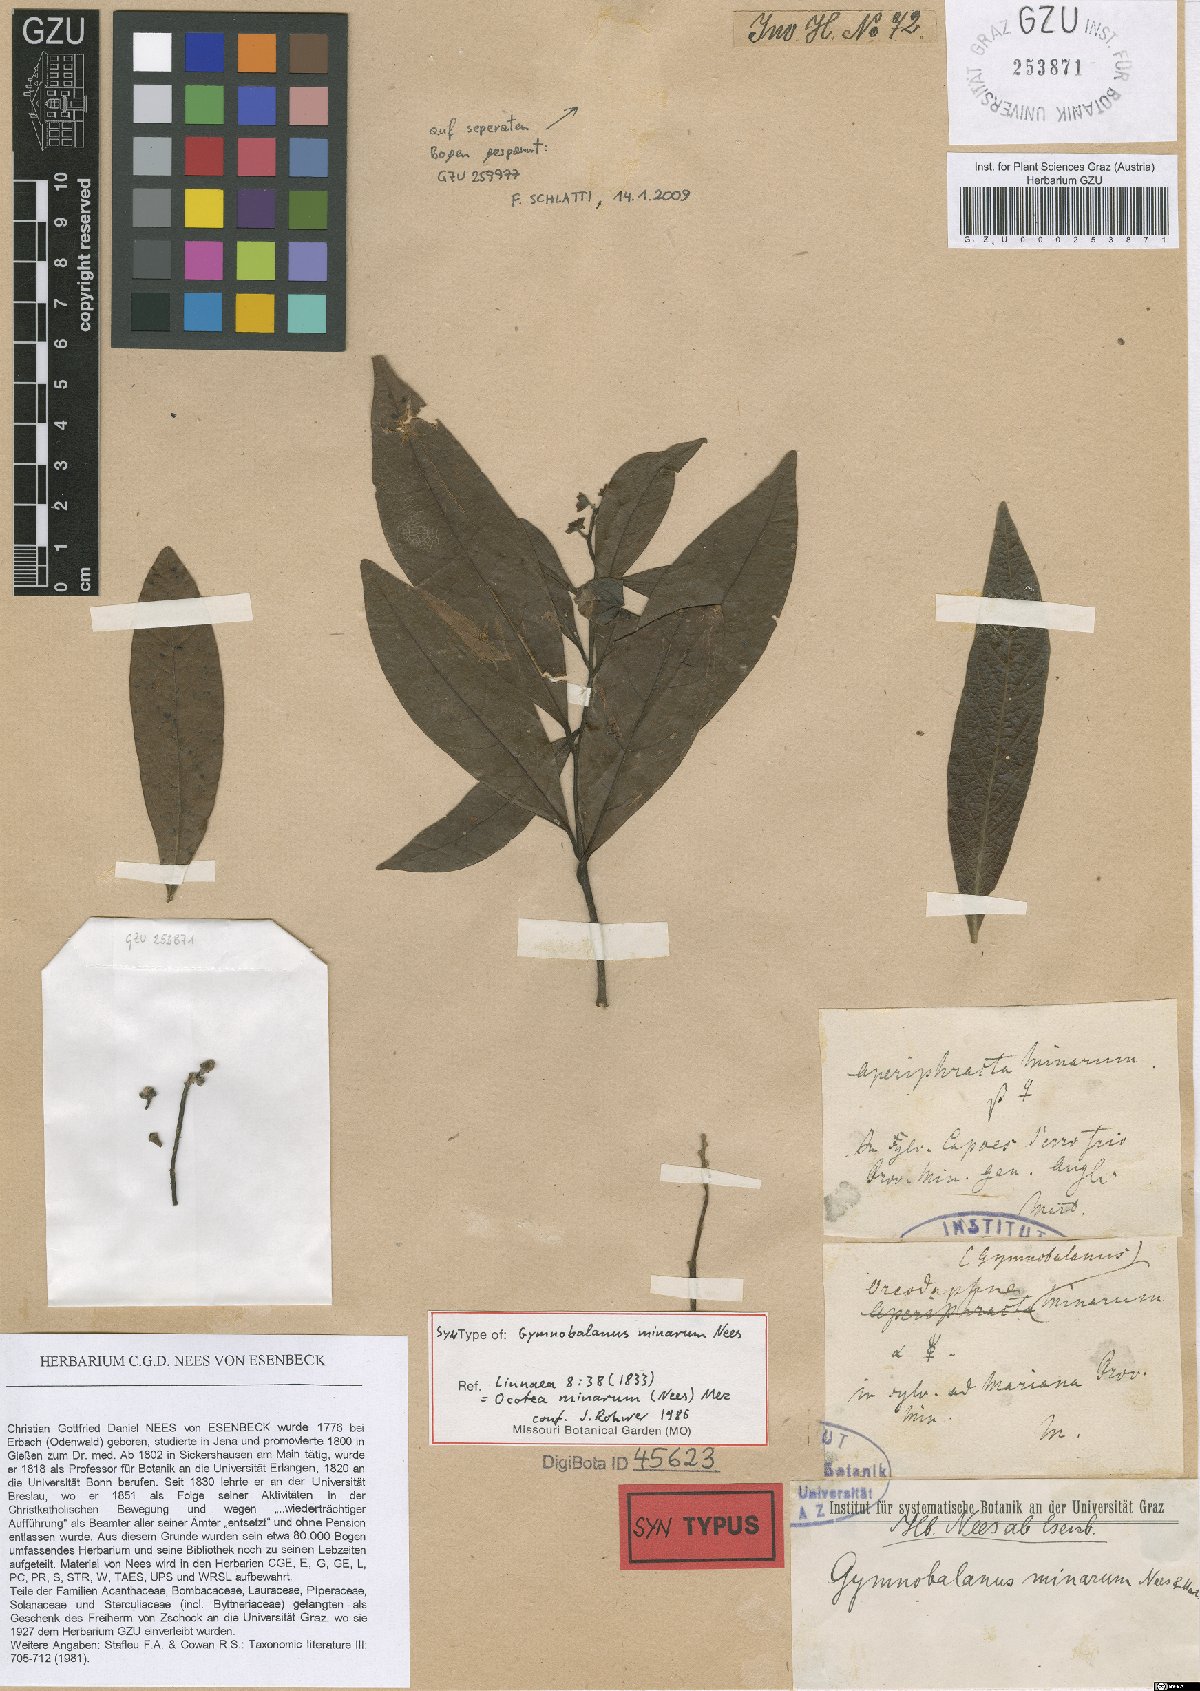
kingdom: Plantae
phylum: Tracheophyta
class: Magnoliopsida
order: Laurales
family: Lauraceae
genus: Ocotea
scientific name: Ocotea minarum
